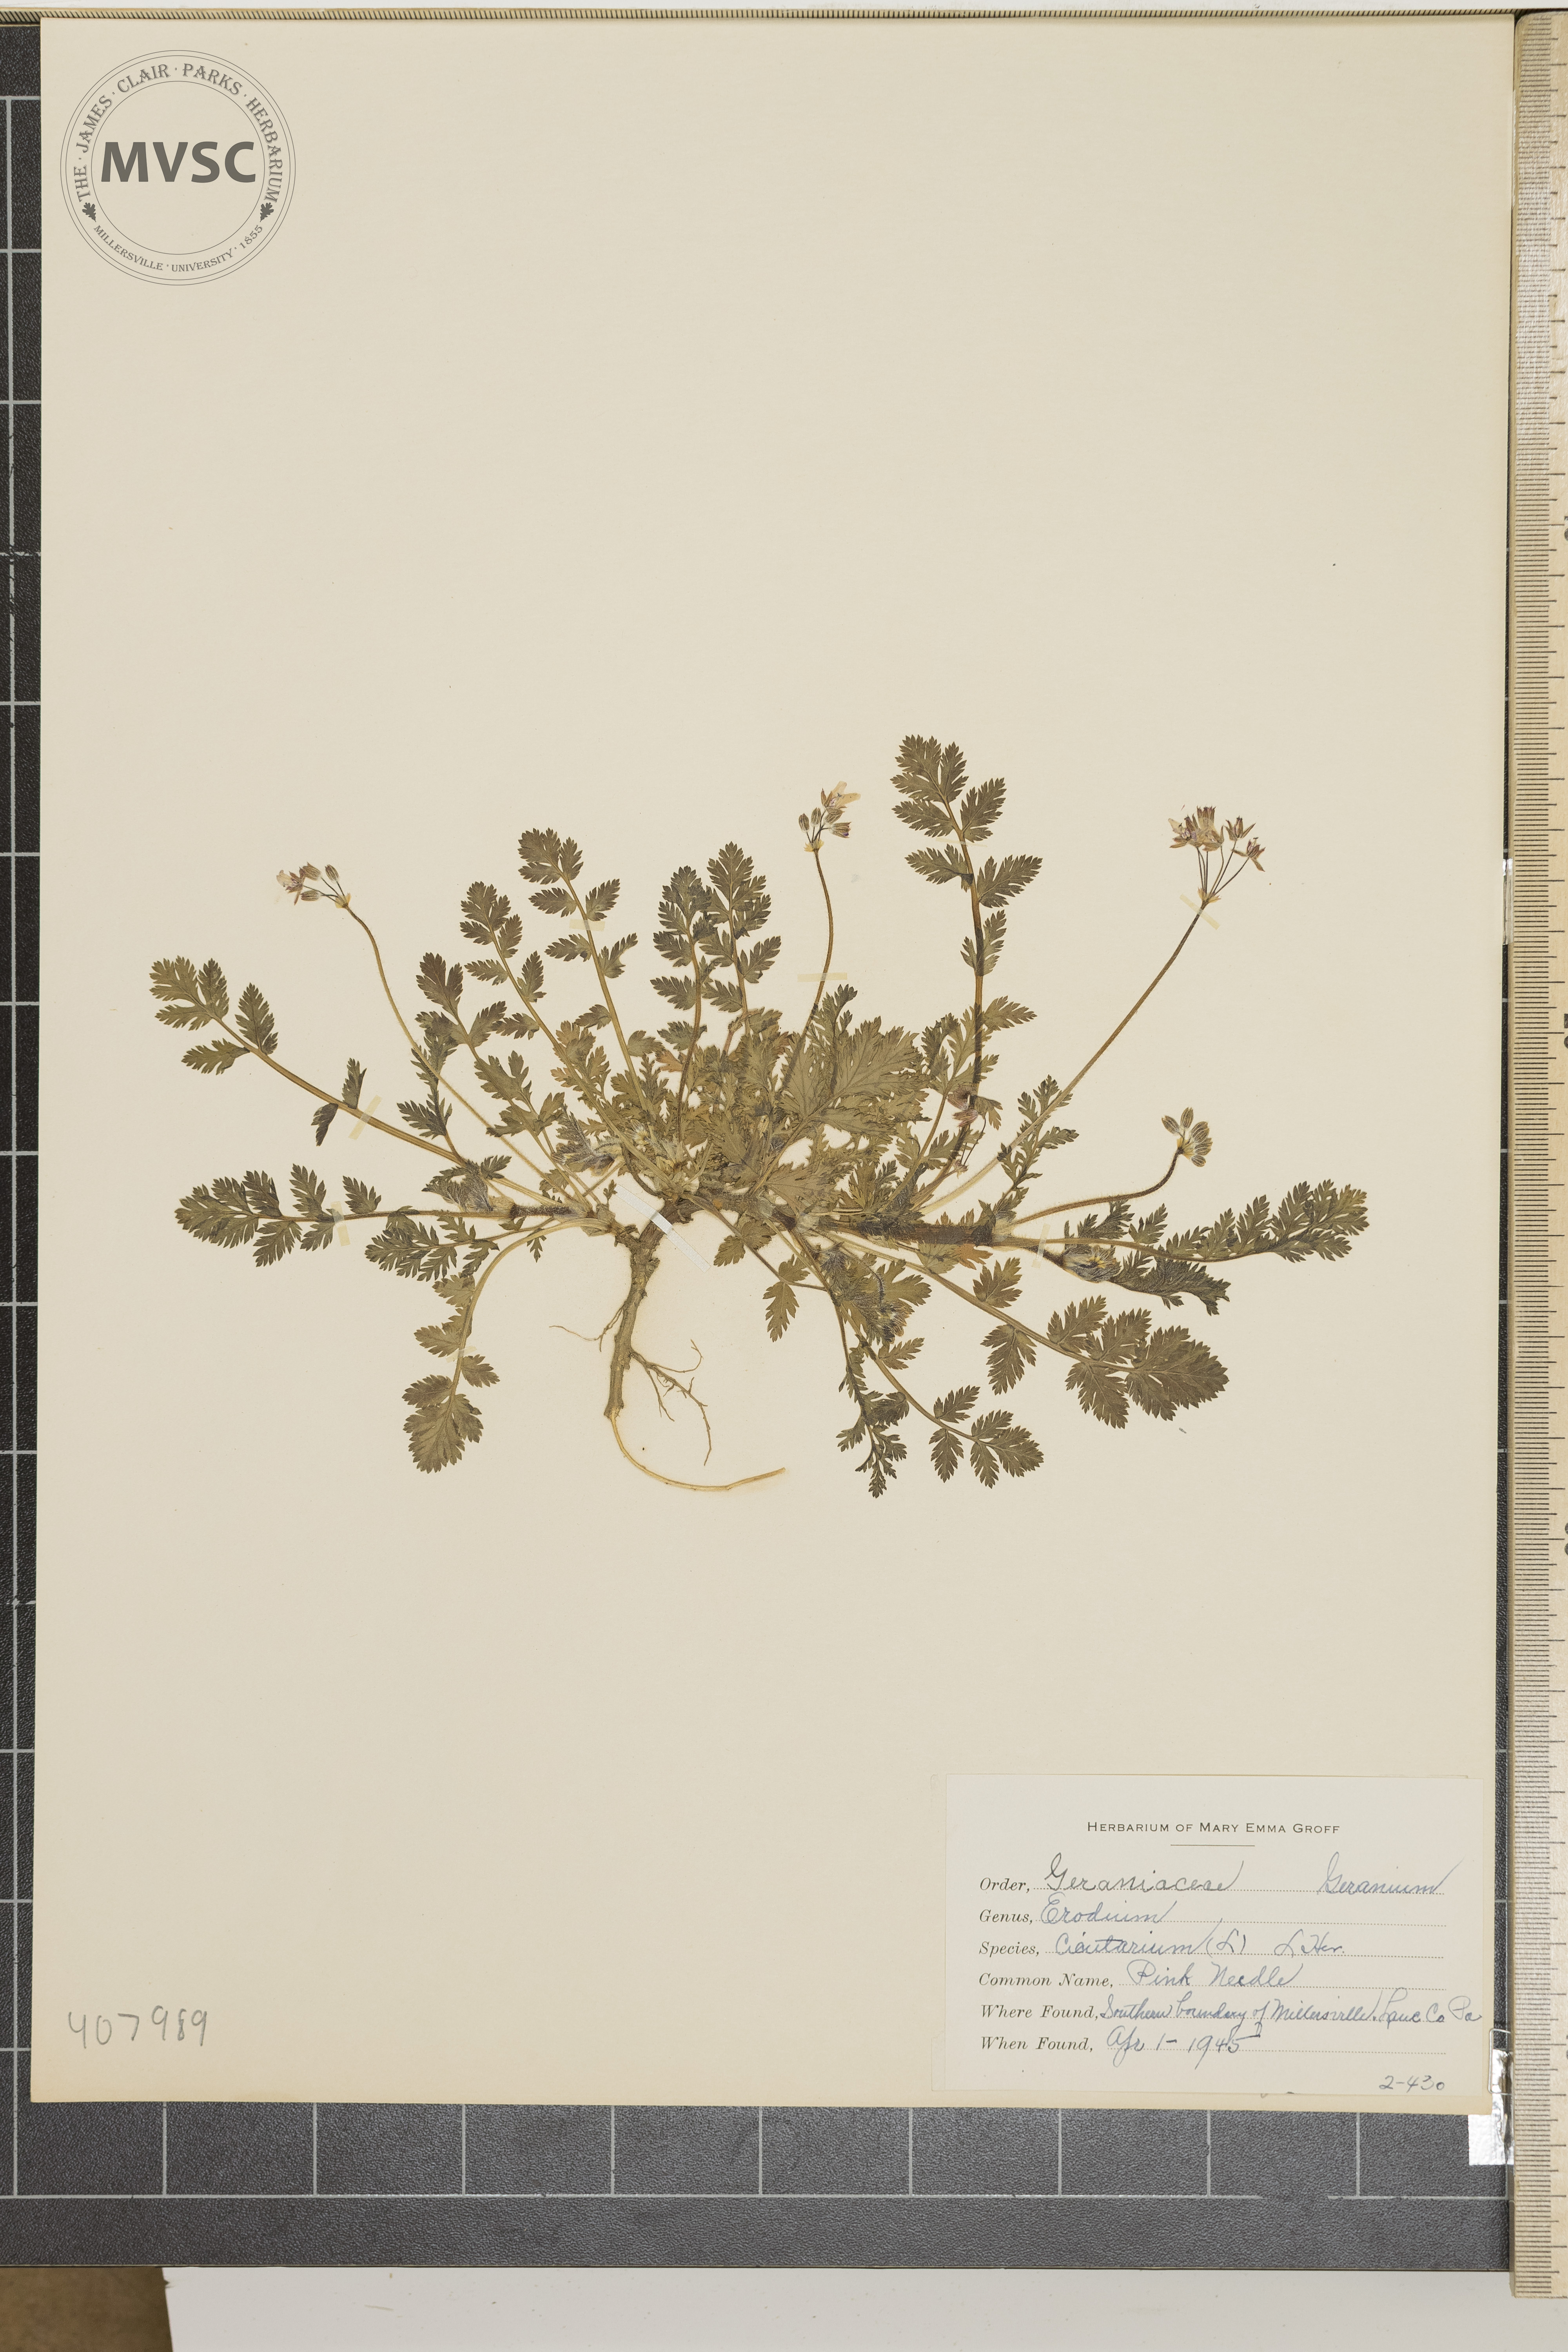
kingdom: Plantae
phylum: Tracheophyta
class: Magnoliopsida
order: Geraniales
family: Geraniaceae
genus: Erodium
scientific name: Erodium cicutarium
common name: Common stork's-bill
